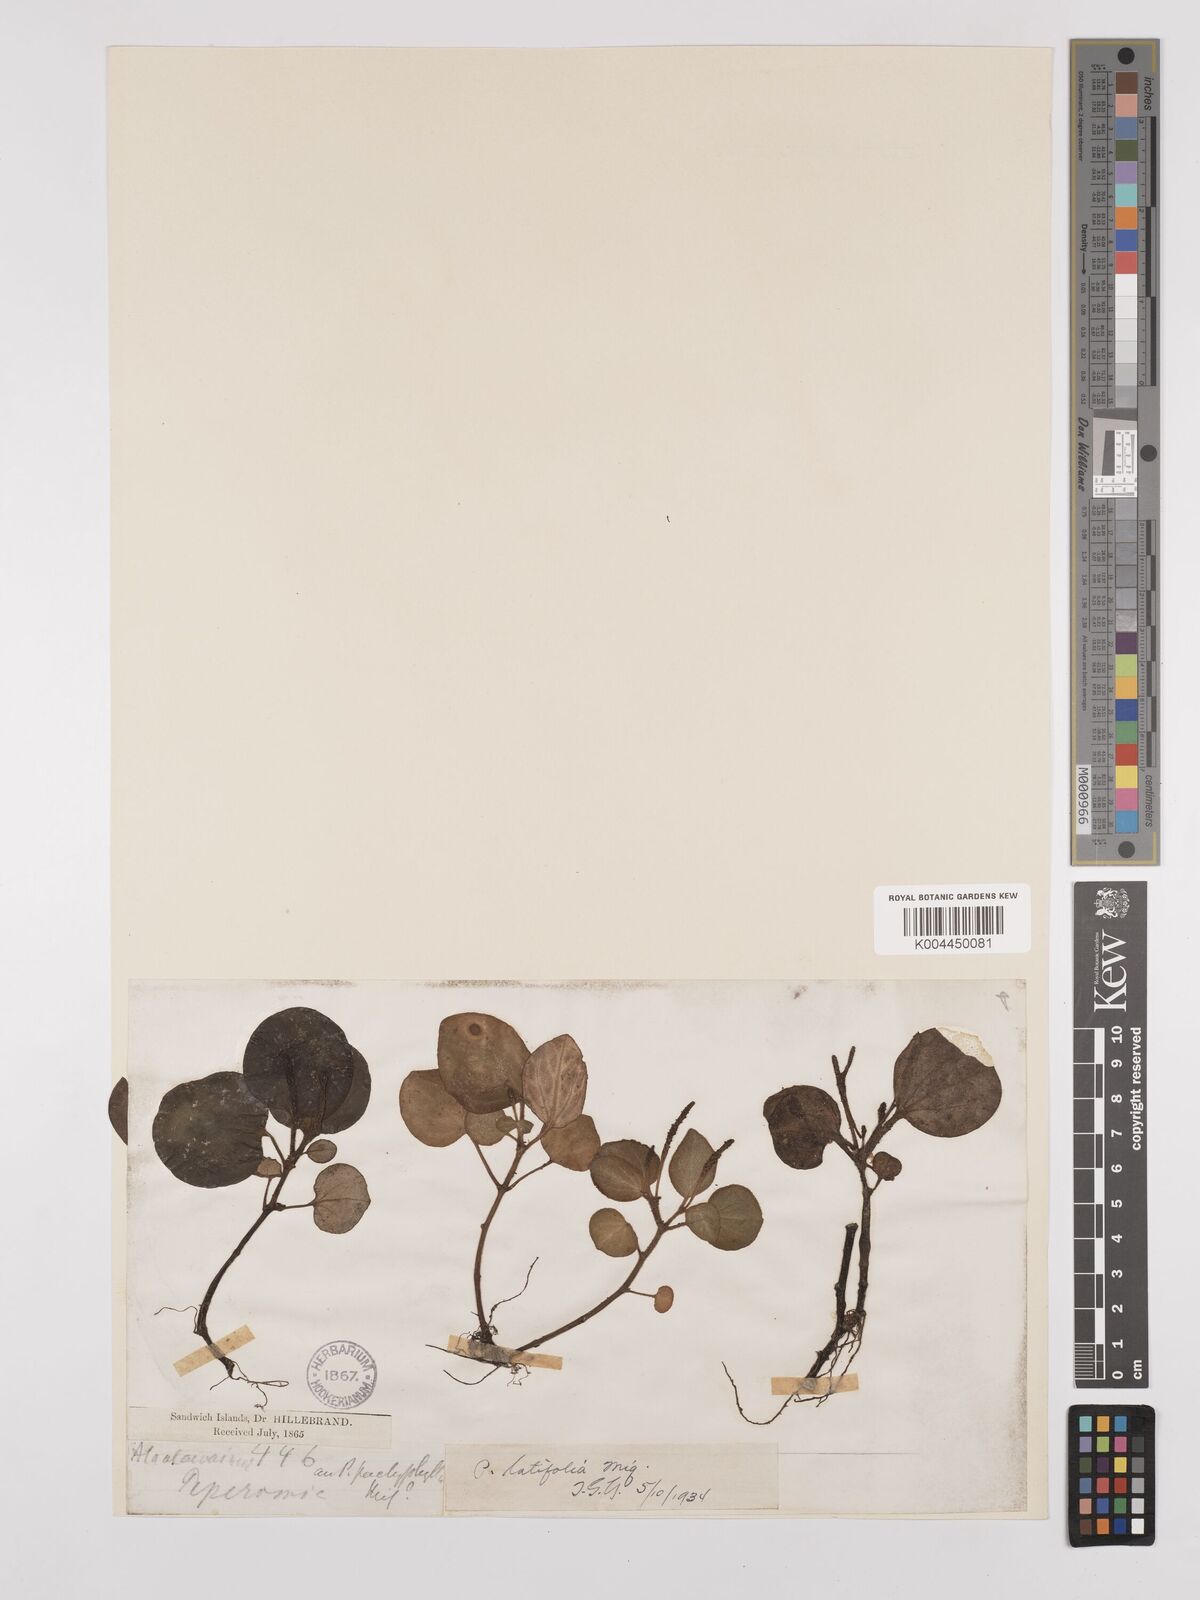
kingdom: Plantae
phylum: Tracheophyta
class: Magnoliopsida
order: Piperales
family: Piperaceae
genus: Peperomia
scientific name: Peperomia latifolia
